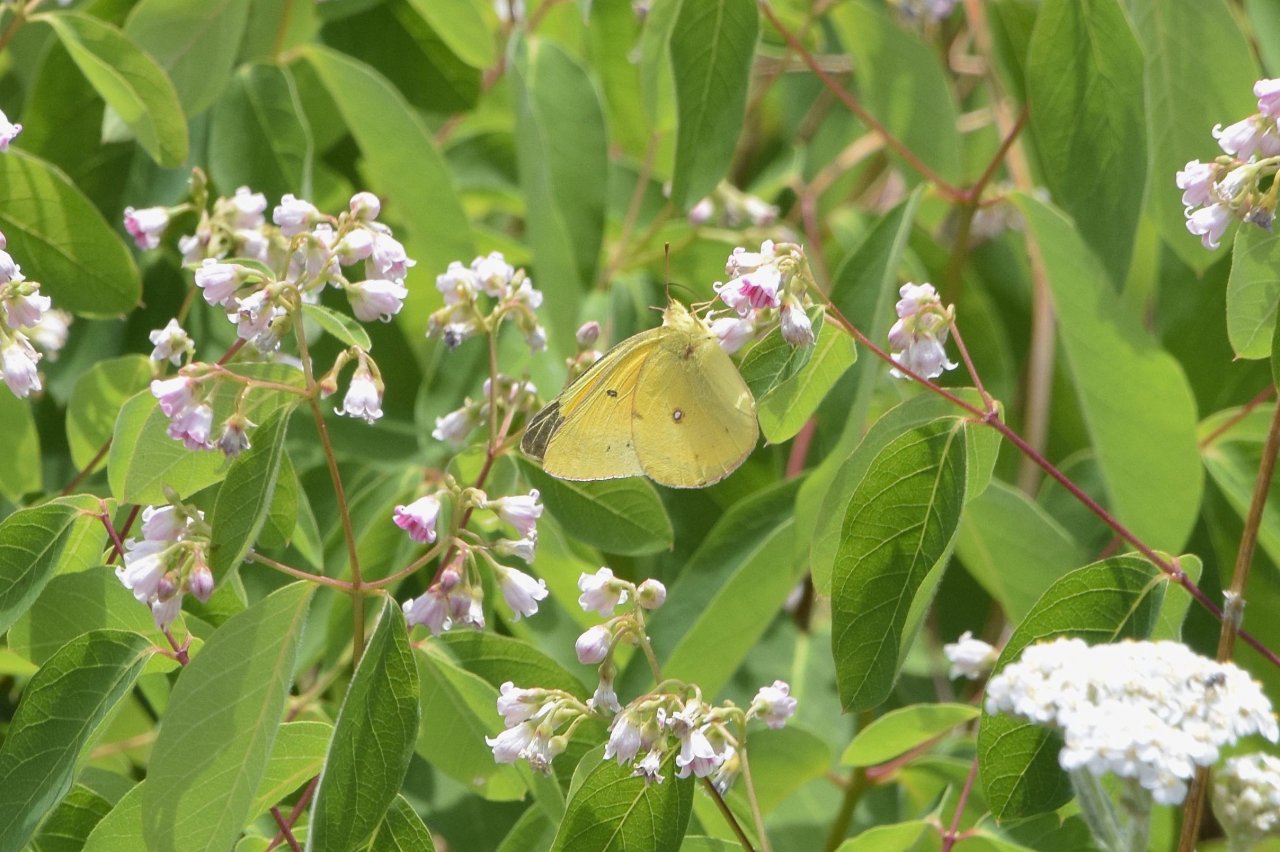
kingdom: Animalia
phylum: Arthropoda
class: Insecta
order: Lepidoptera
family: Pieridae
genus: Colias
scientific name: Colias eurytheme
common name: Orange Sulphur
